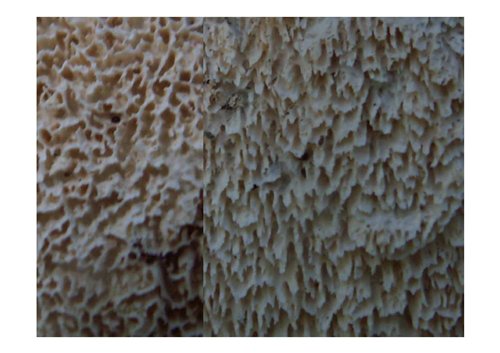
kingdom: Fungi
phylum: Basidiomycota
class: Agaricomycetes
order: Hymenochaetales
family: Schizoporaceae
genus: Schizopora
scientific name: Schizopora paradoxa
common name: hvid tandsvamp
